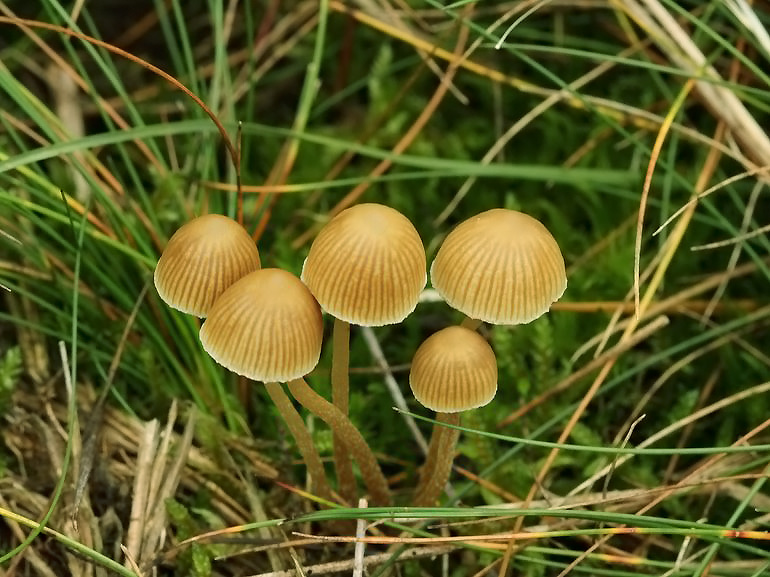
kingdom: Fungi
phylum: Basidiomycota
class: Agaricomycetes
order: Agaricales
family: Hymenogastraceae
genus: Galerina
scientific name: Galerina mniophila
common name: olivengul hjelmhat
